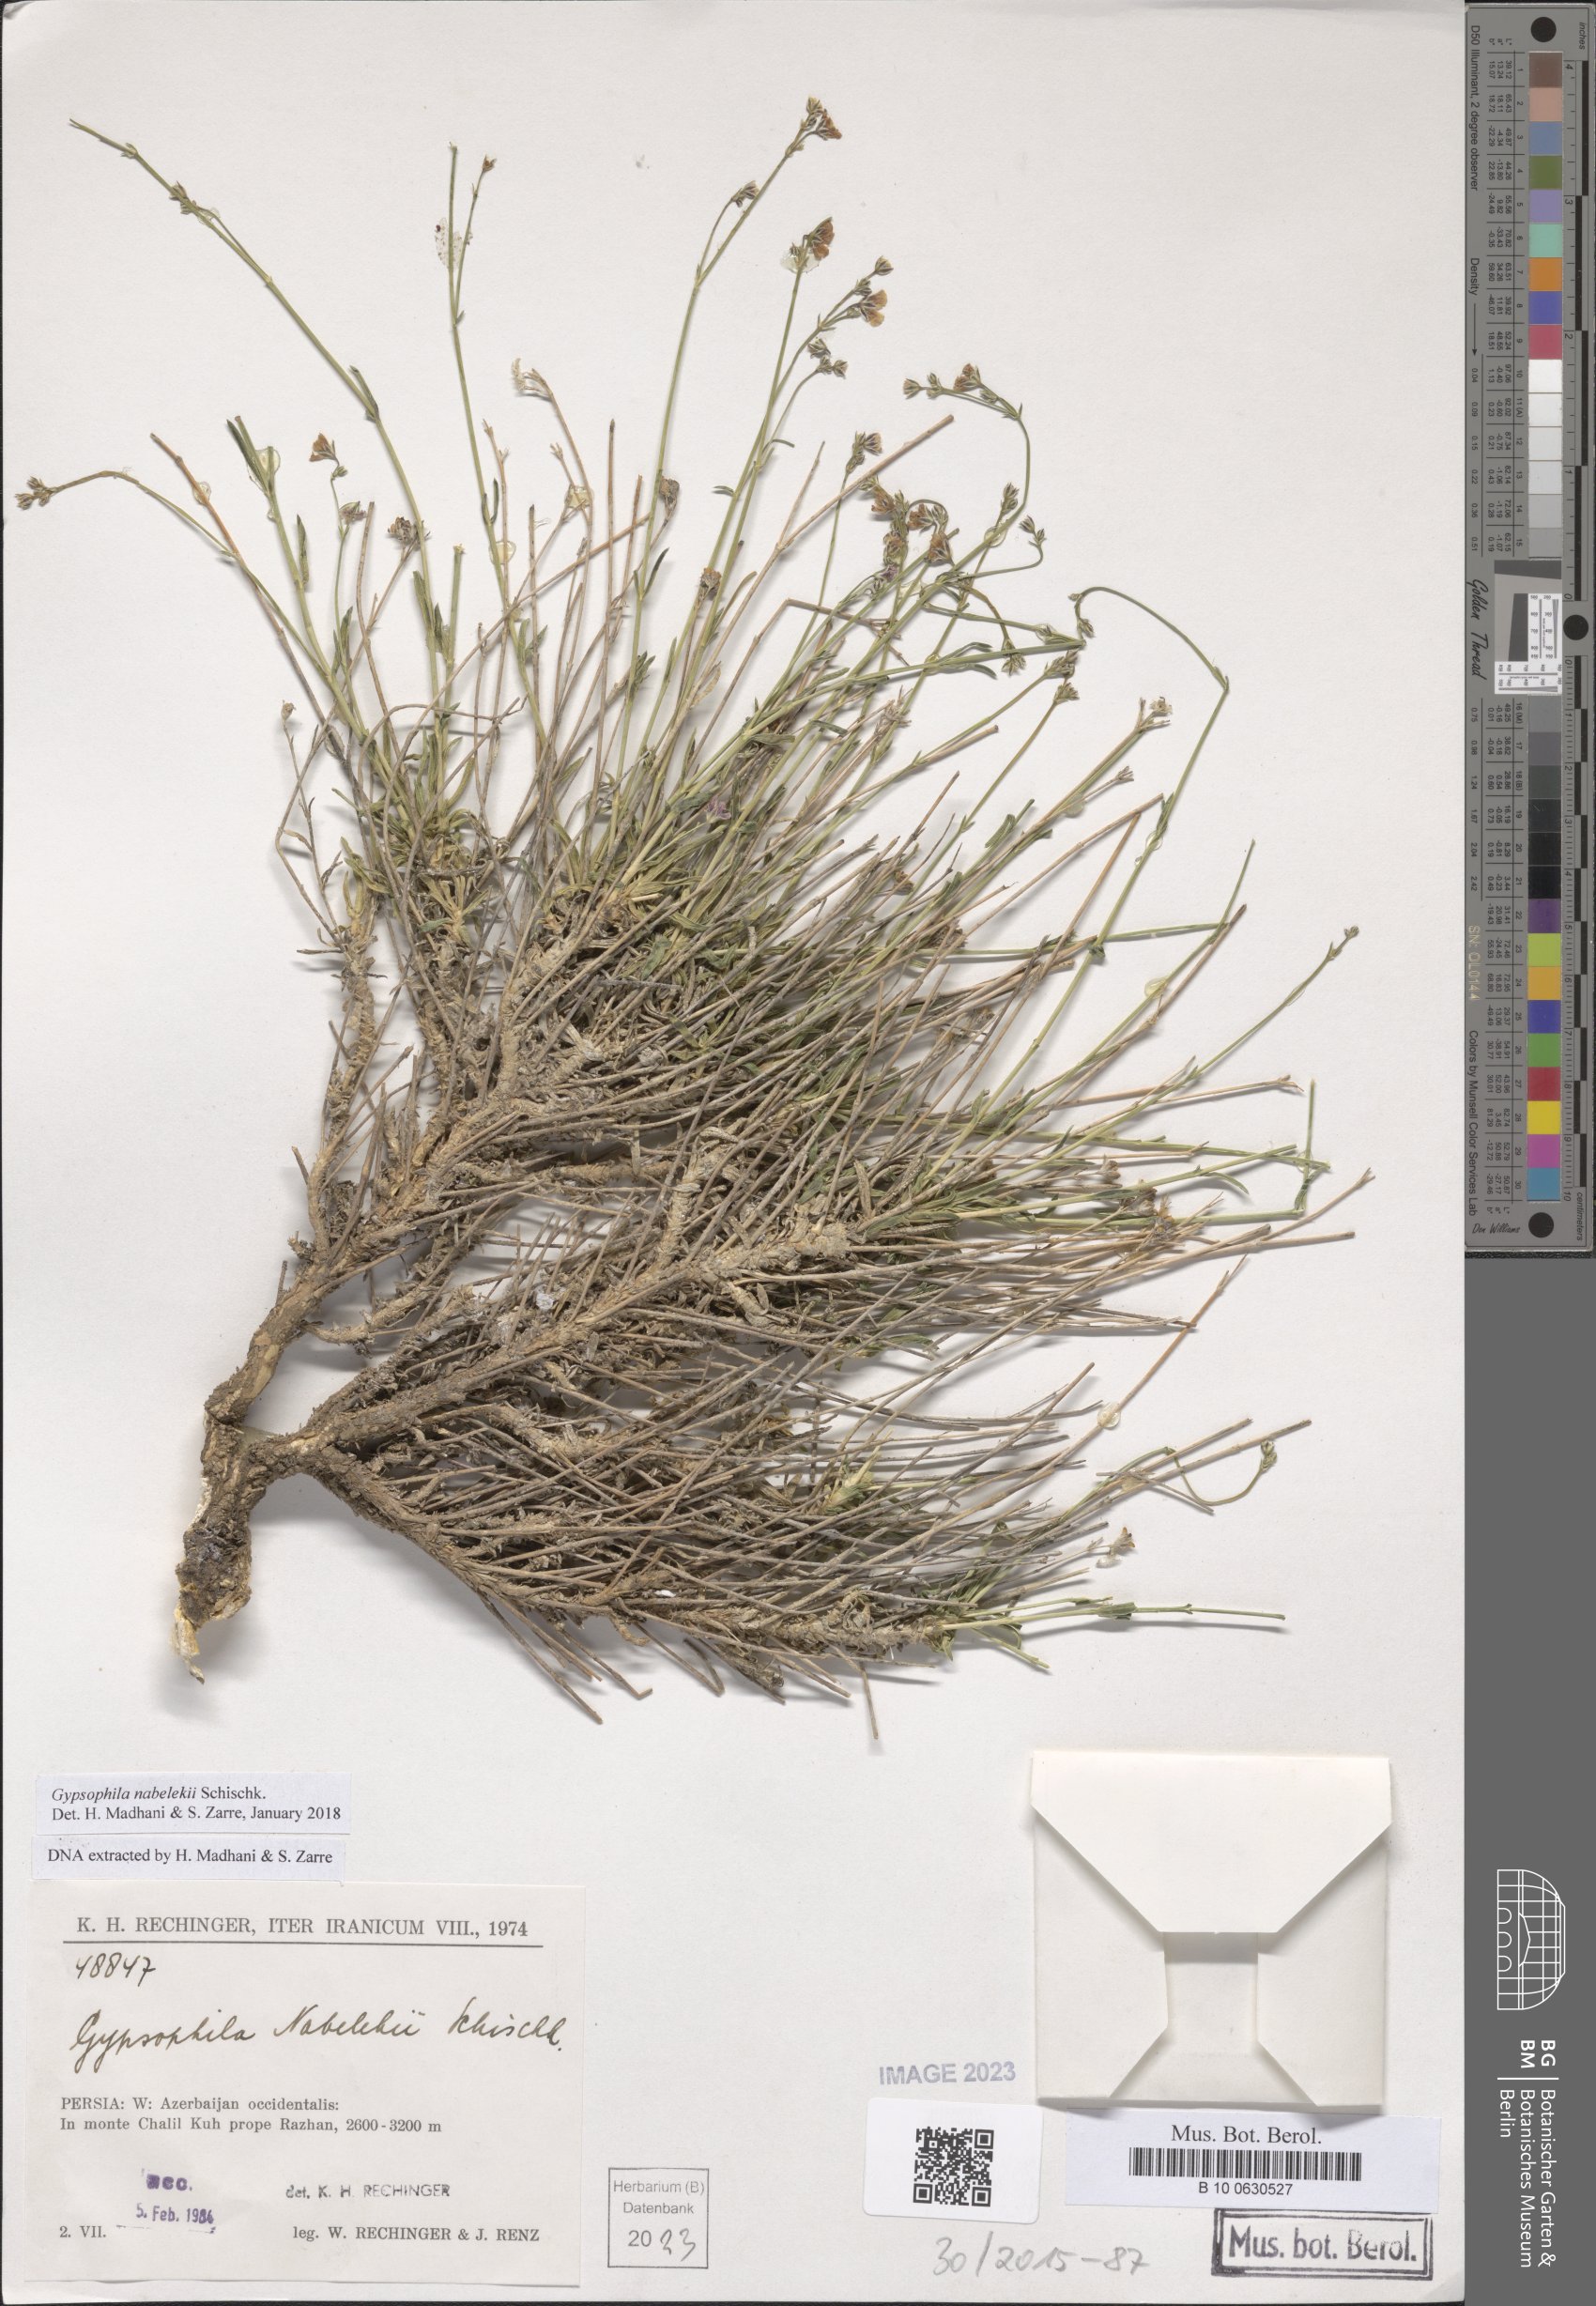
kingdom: Plantae
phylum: Tracheophyta
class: Magnoliopsida
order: Caryophyllales
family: Caryophyllaceae
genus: Gypsophila
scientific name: Gypsophila nabelekii
